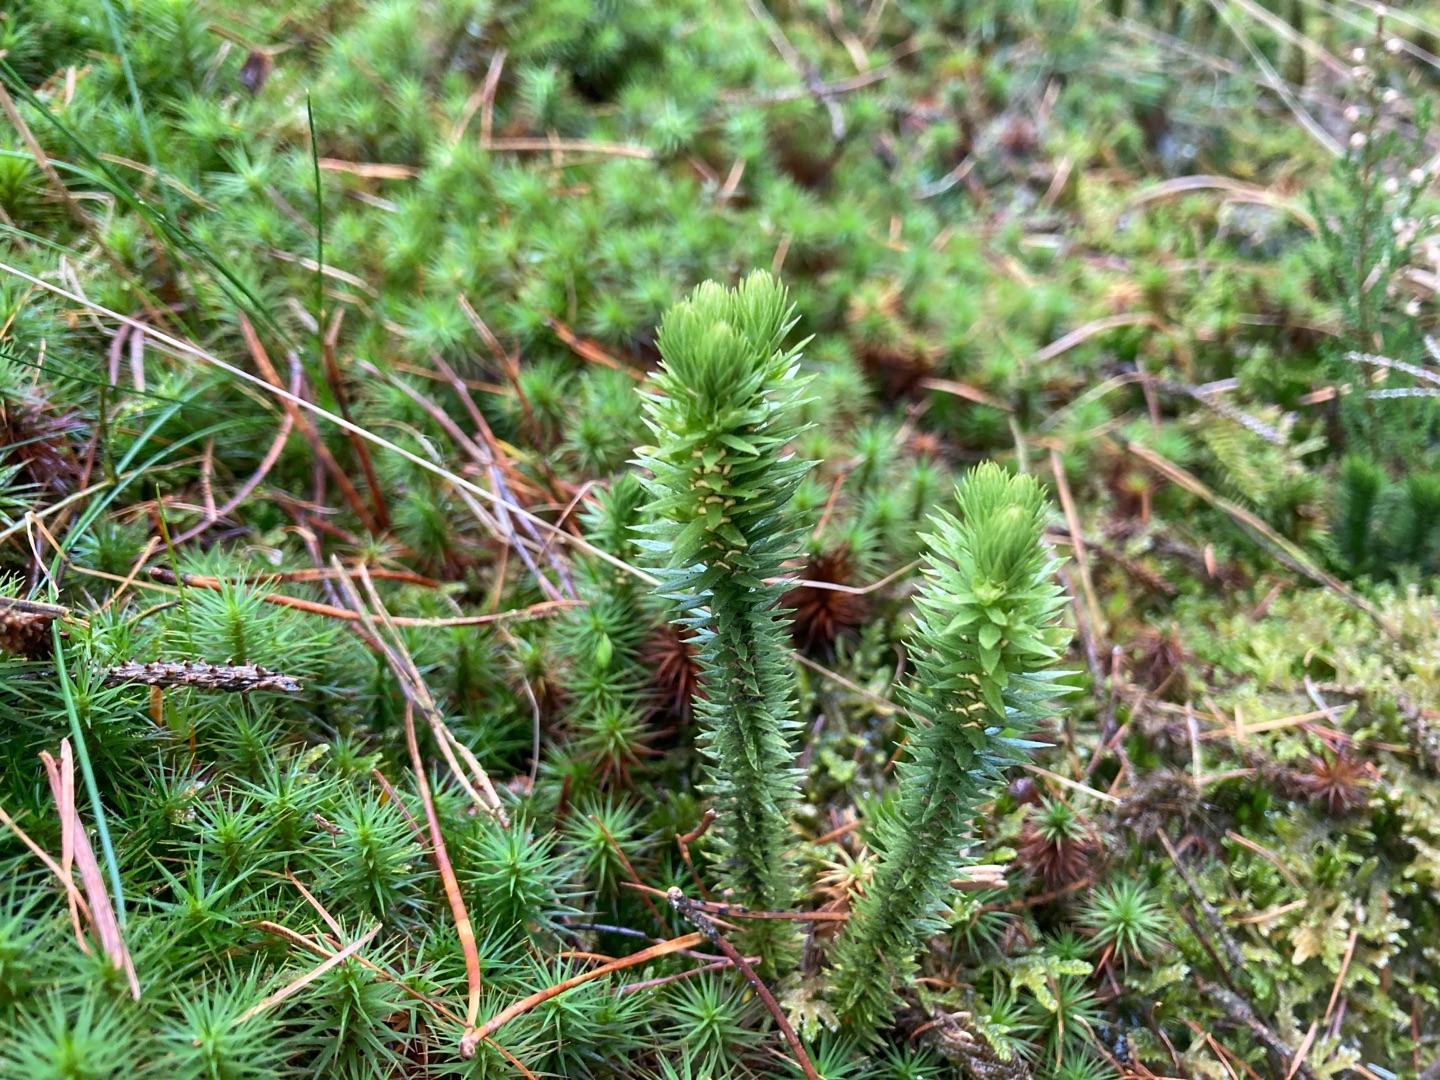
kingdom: Plantae
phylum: Tracheophyta
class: Lycopodiopsida
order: Lycopodiales
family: Lycopodiaceae
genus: Huperzia
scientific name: Huperzia selago
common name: Otteradet ulvefod
